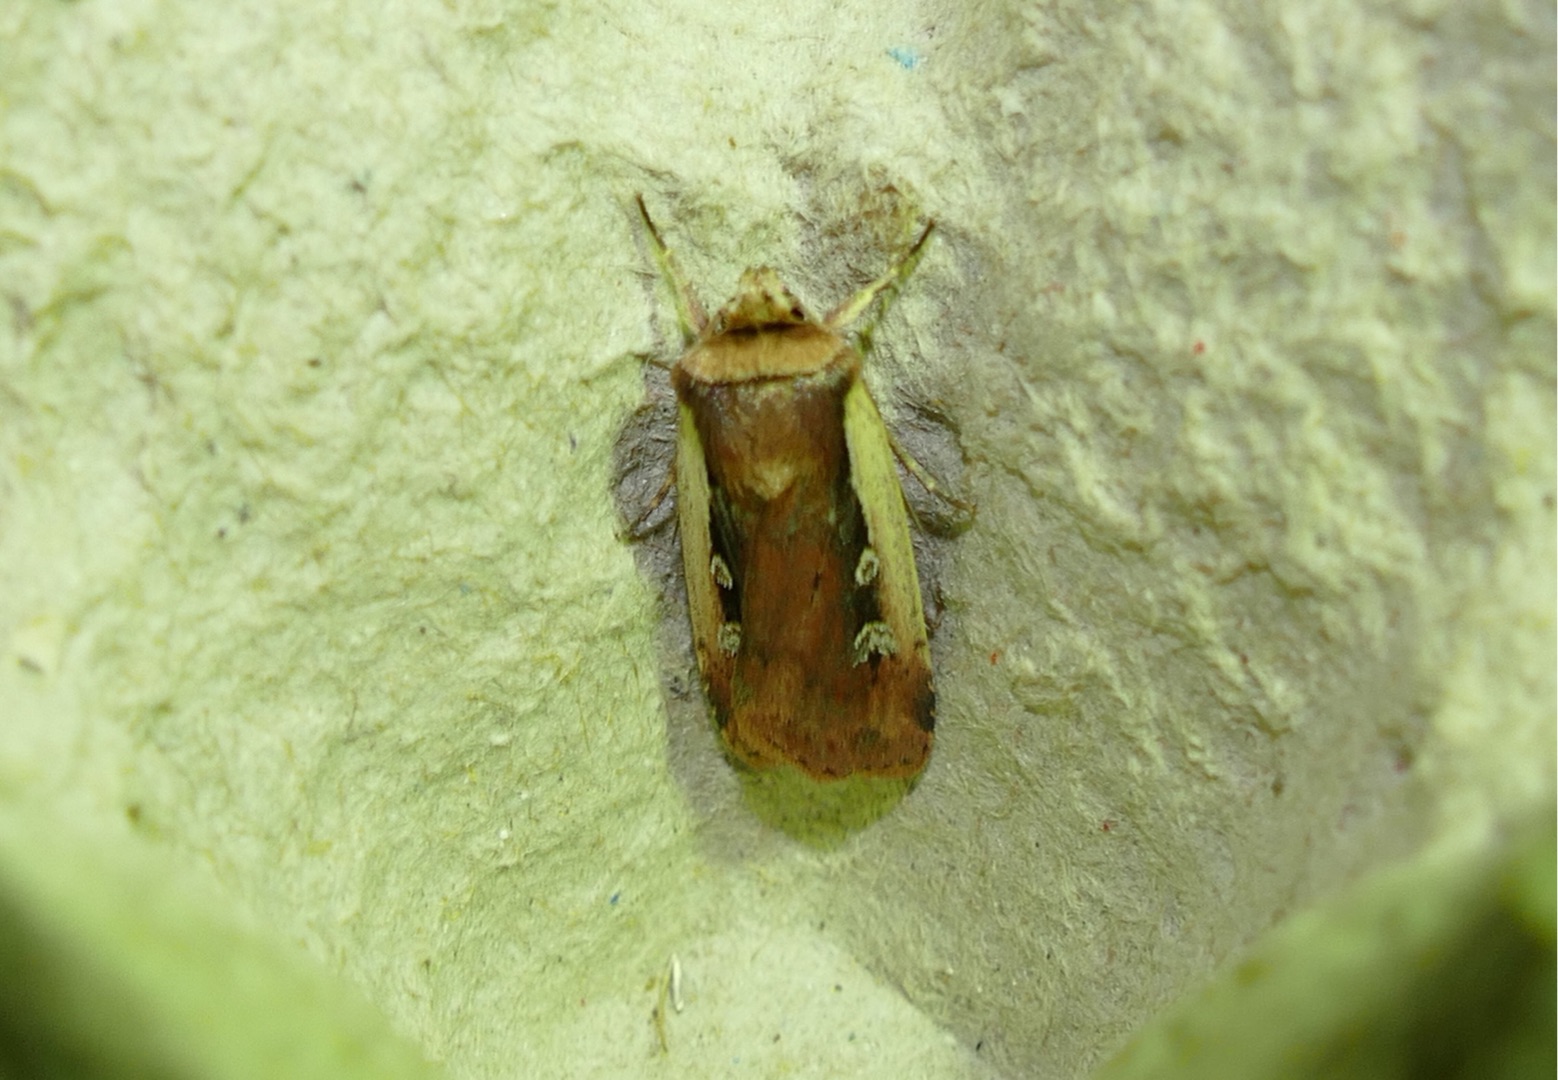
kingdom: Animalia
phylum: Arthropoda
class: Insecta
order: Lepidoptera
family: Noctuidae
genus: Ochropleura
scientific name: Ochropleura plecta
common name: Hvidrandet jordugle
